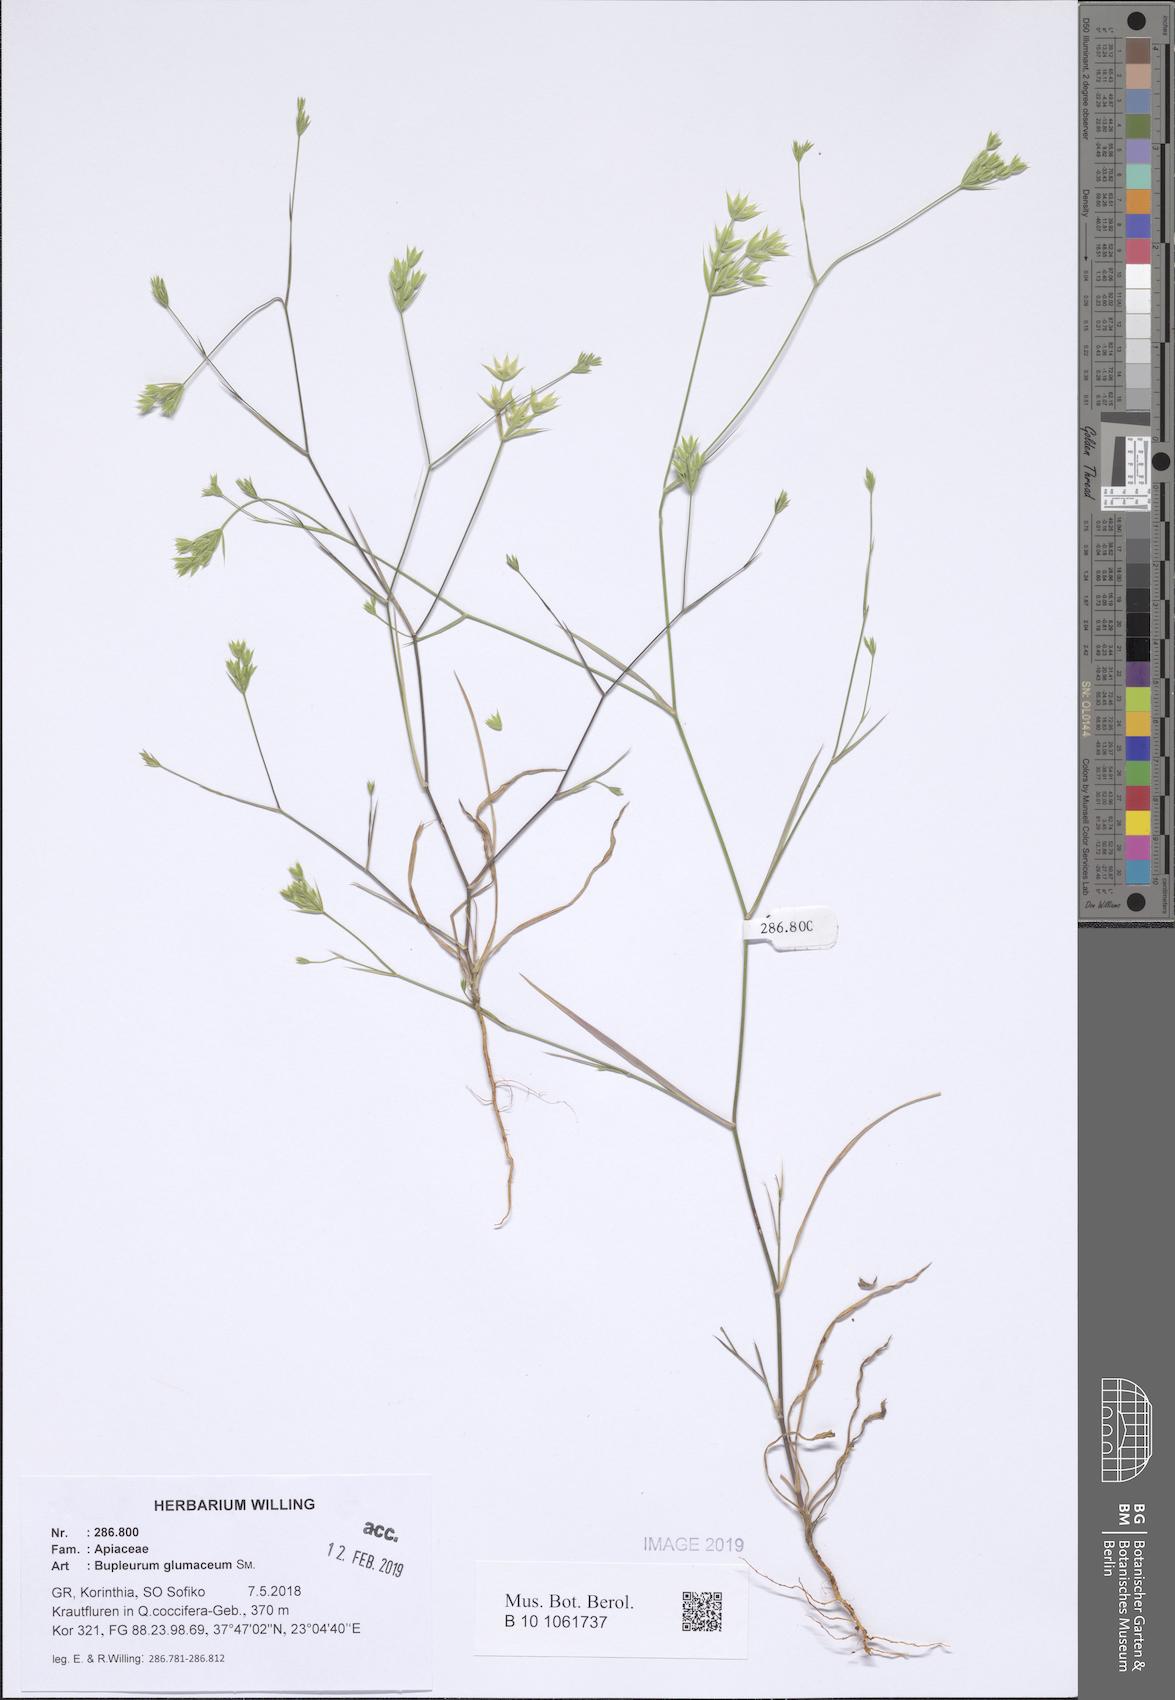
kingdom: Plantae
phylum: Tracheophyta
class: Magnoliopsida
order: Apiales
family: Apiaceae
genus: Bupleurum
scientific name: Bupleurum glumaceum
